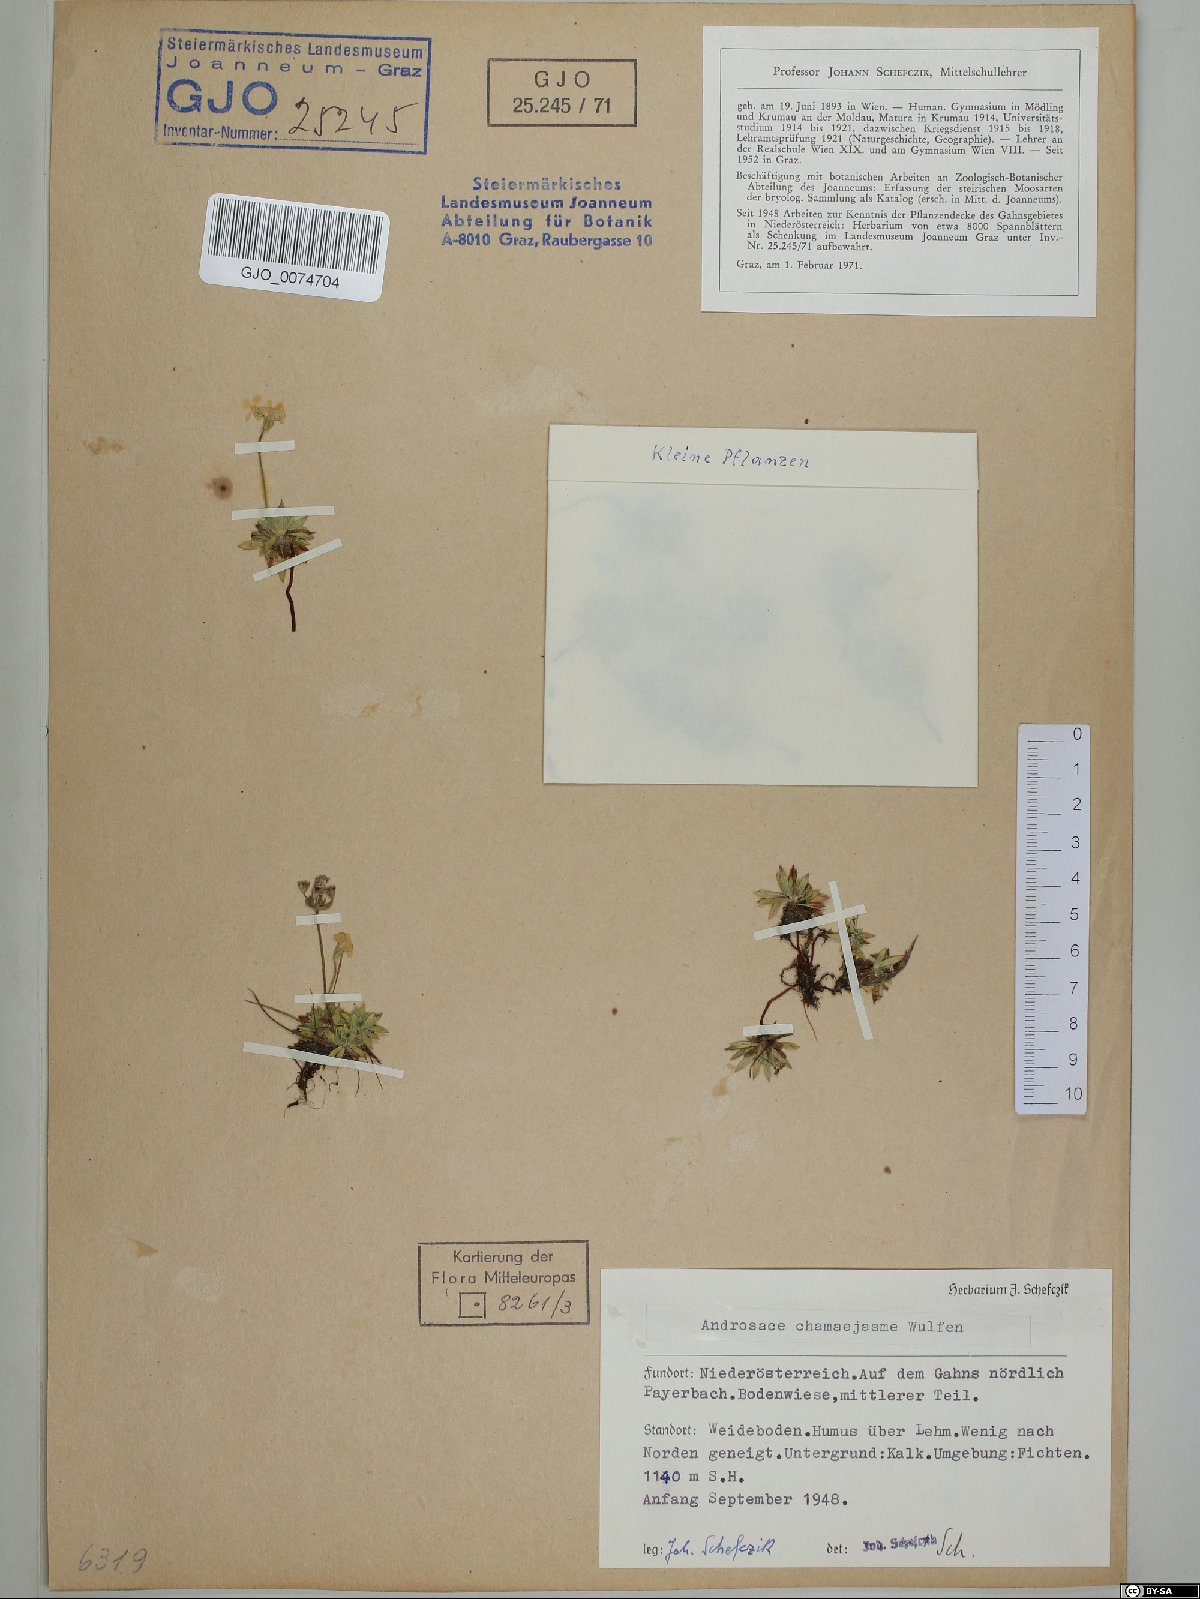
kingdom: Plantae
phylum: Tracheophyta
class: Magnoliopsida
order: Ericales
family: Primulaceae
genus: Androsace
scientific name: Androsace chamaejasme
